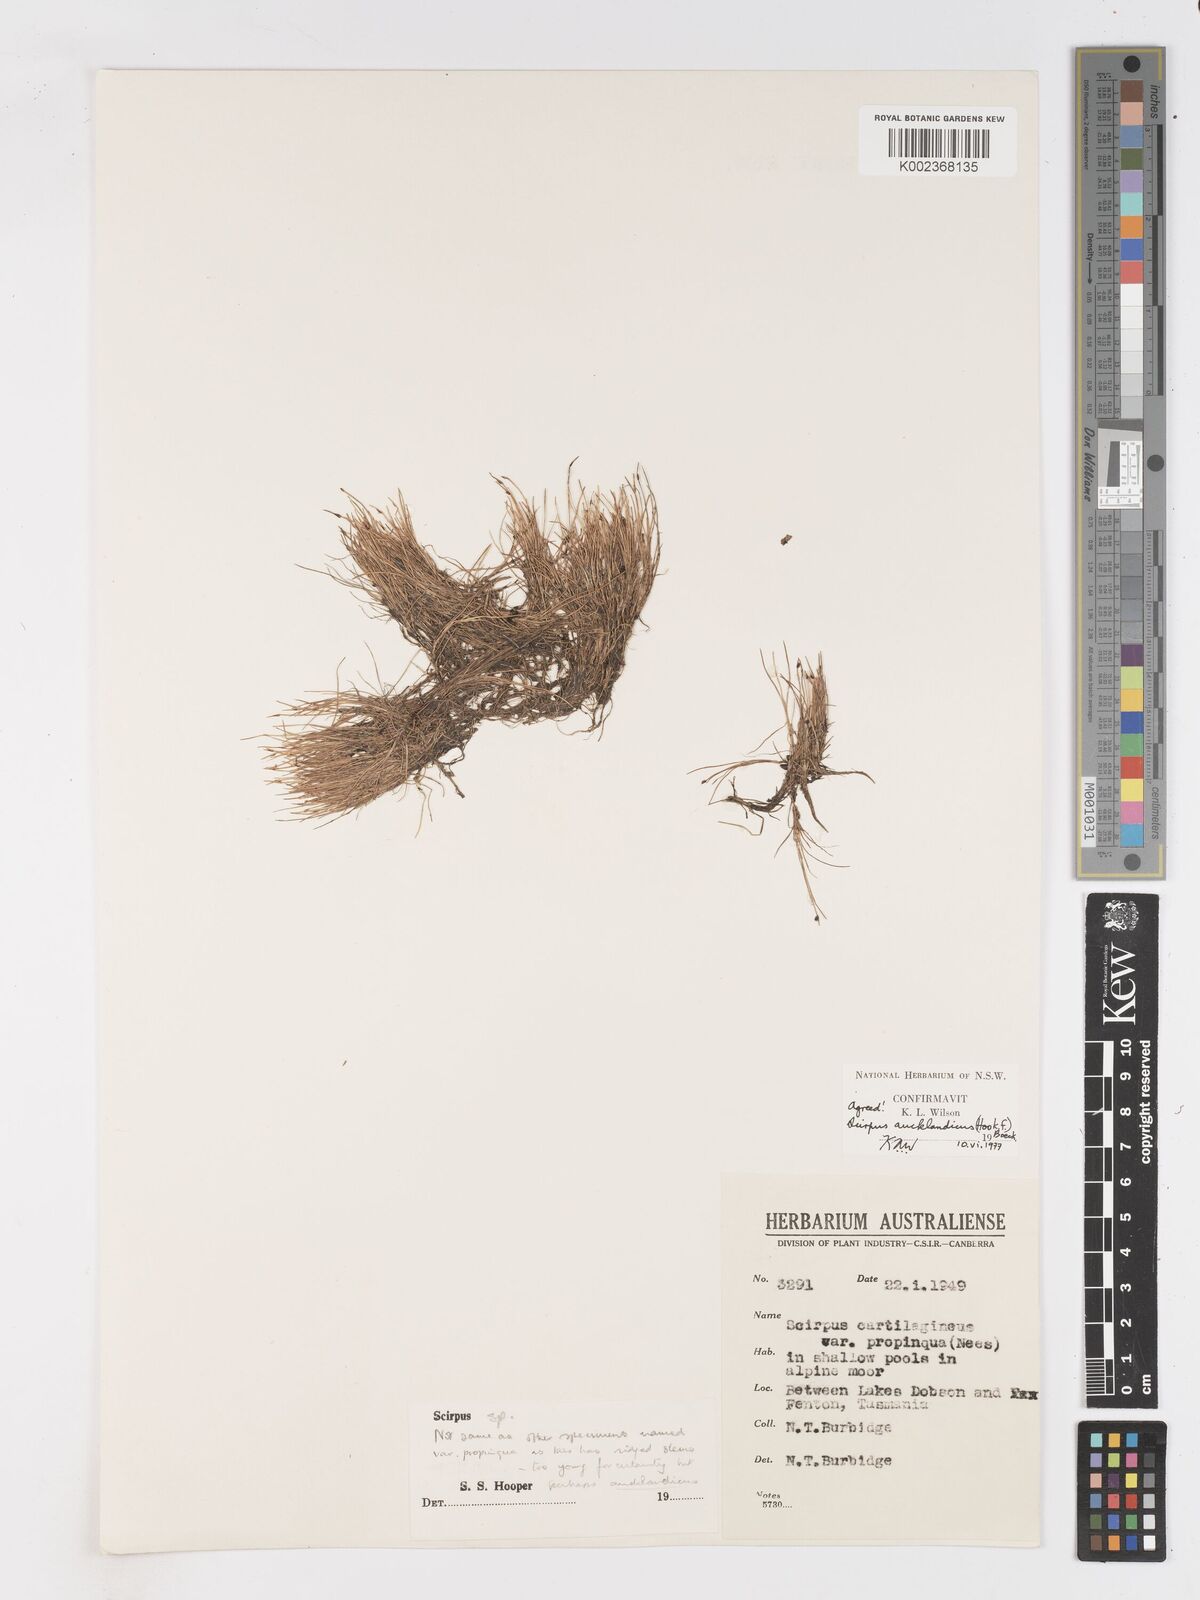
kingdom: Plantae
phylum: Tracheophyta
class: Liliopsida
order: Poales
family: Cyperaceae
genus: Isolepis
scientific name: Isolepis aucklandica
